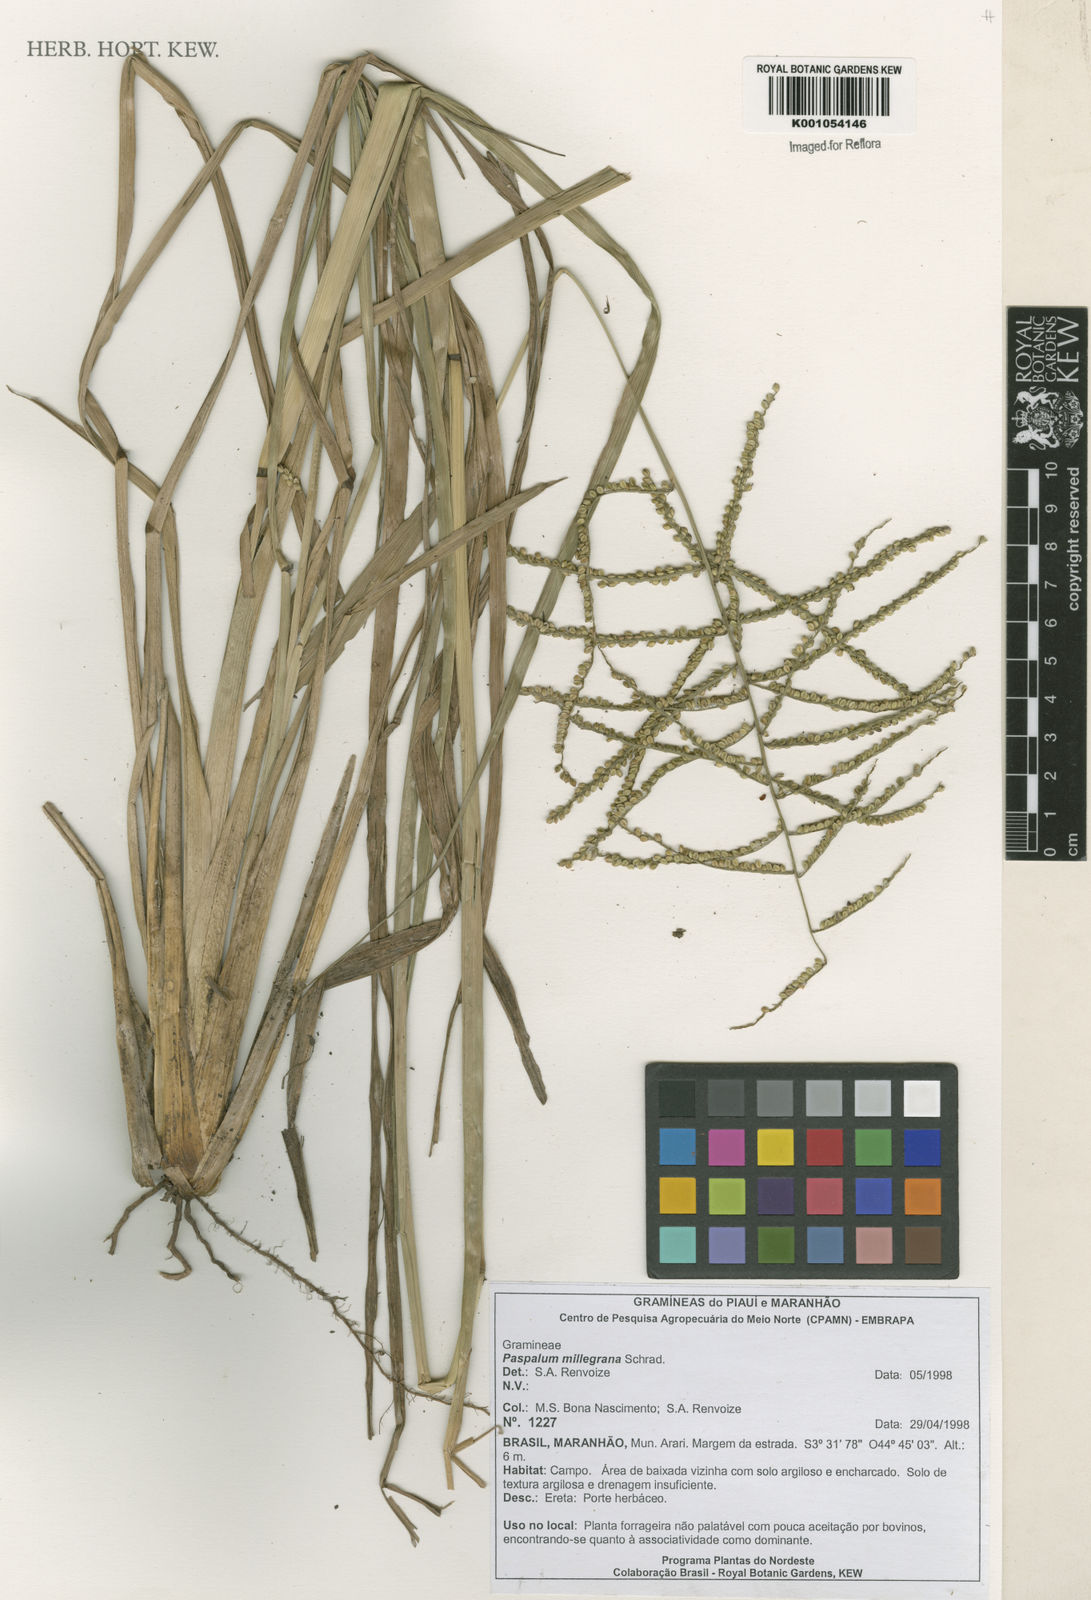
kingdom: Plantae
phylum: Tracheophyta
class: Liliopsida
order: Poales
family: Poaceae
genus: Paspalum
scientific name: Paspalum
